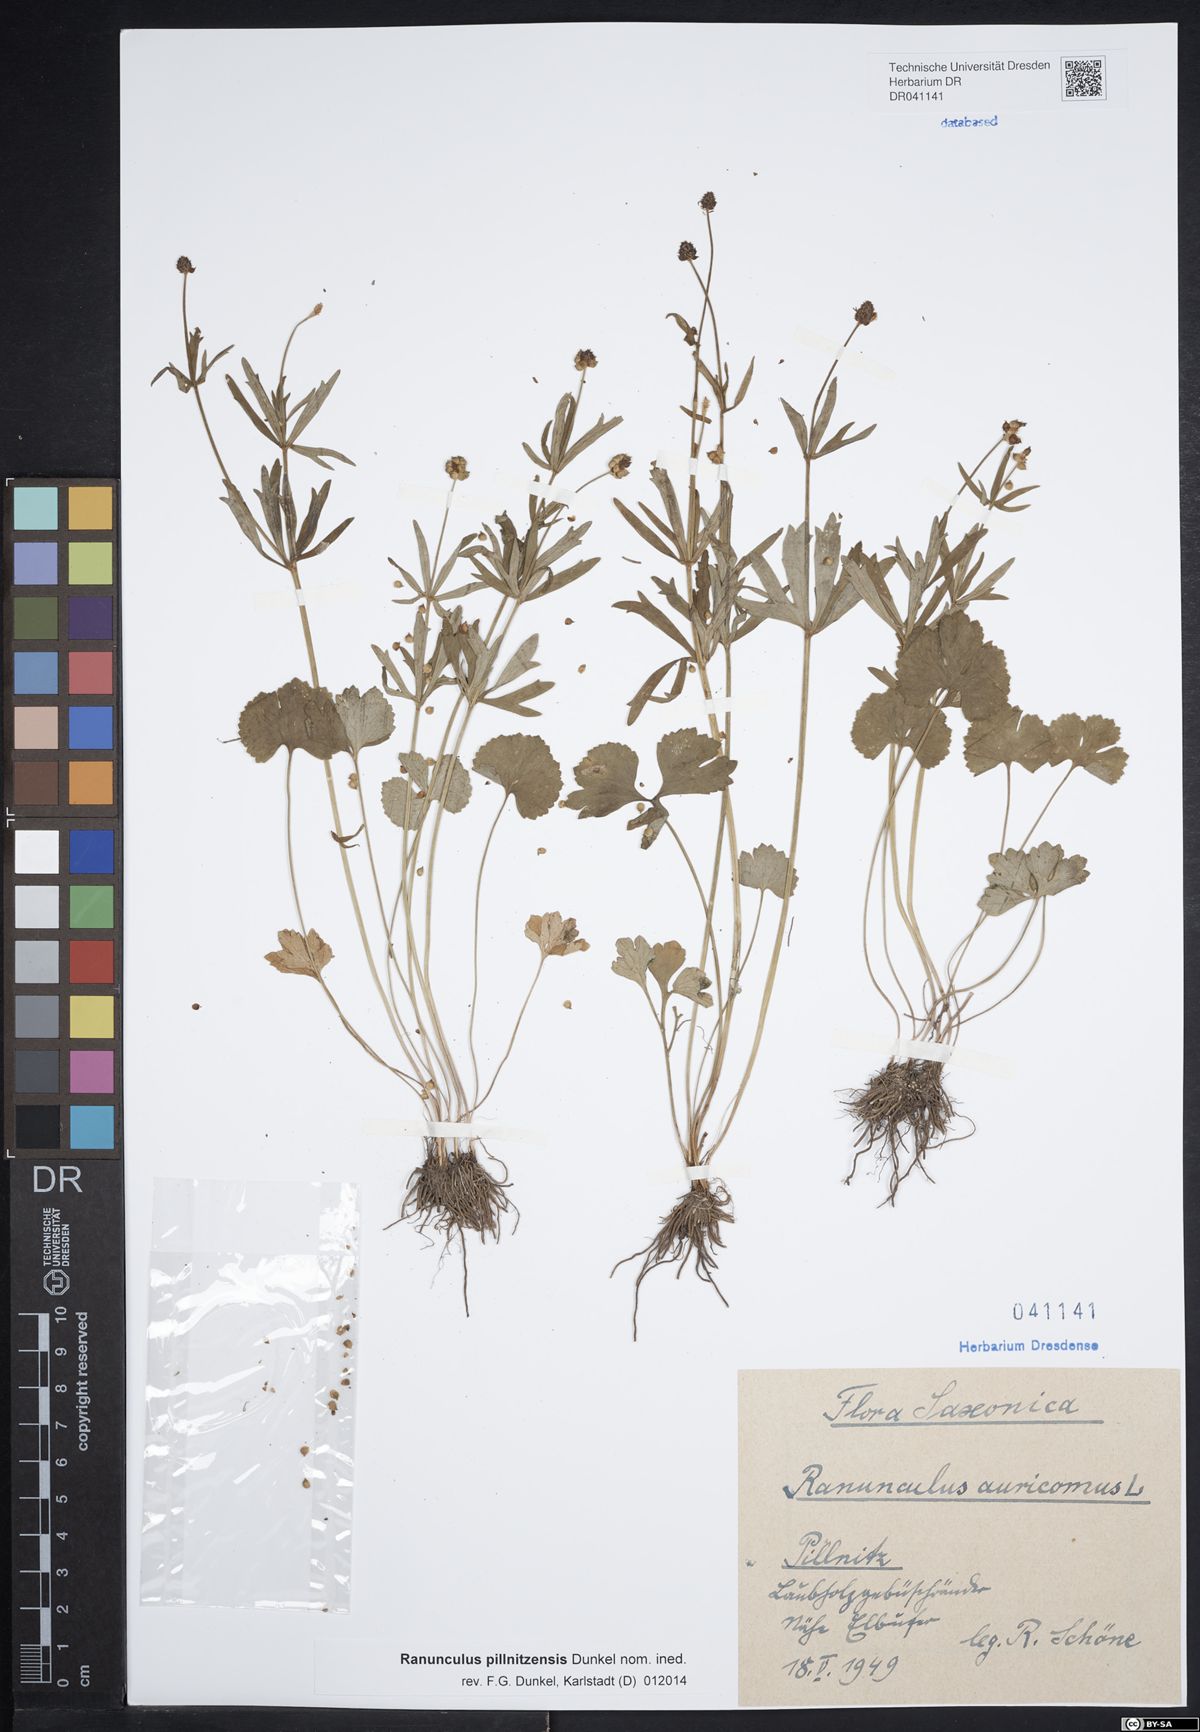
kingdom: Plantae
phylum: Tracheophyta
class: Magnoliopsida
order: Ranunculales
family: Ranunculaceae
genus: Ranunculus
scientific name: Ranunculus pillnitzensis
